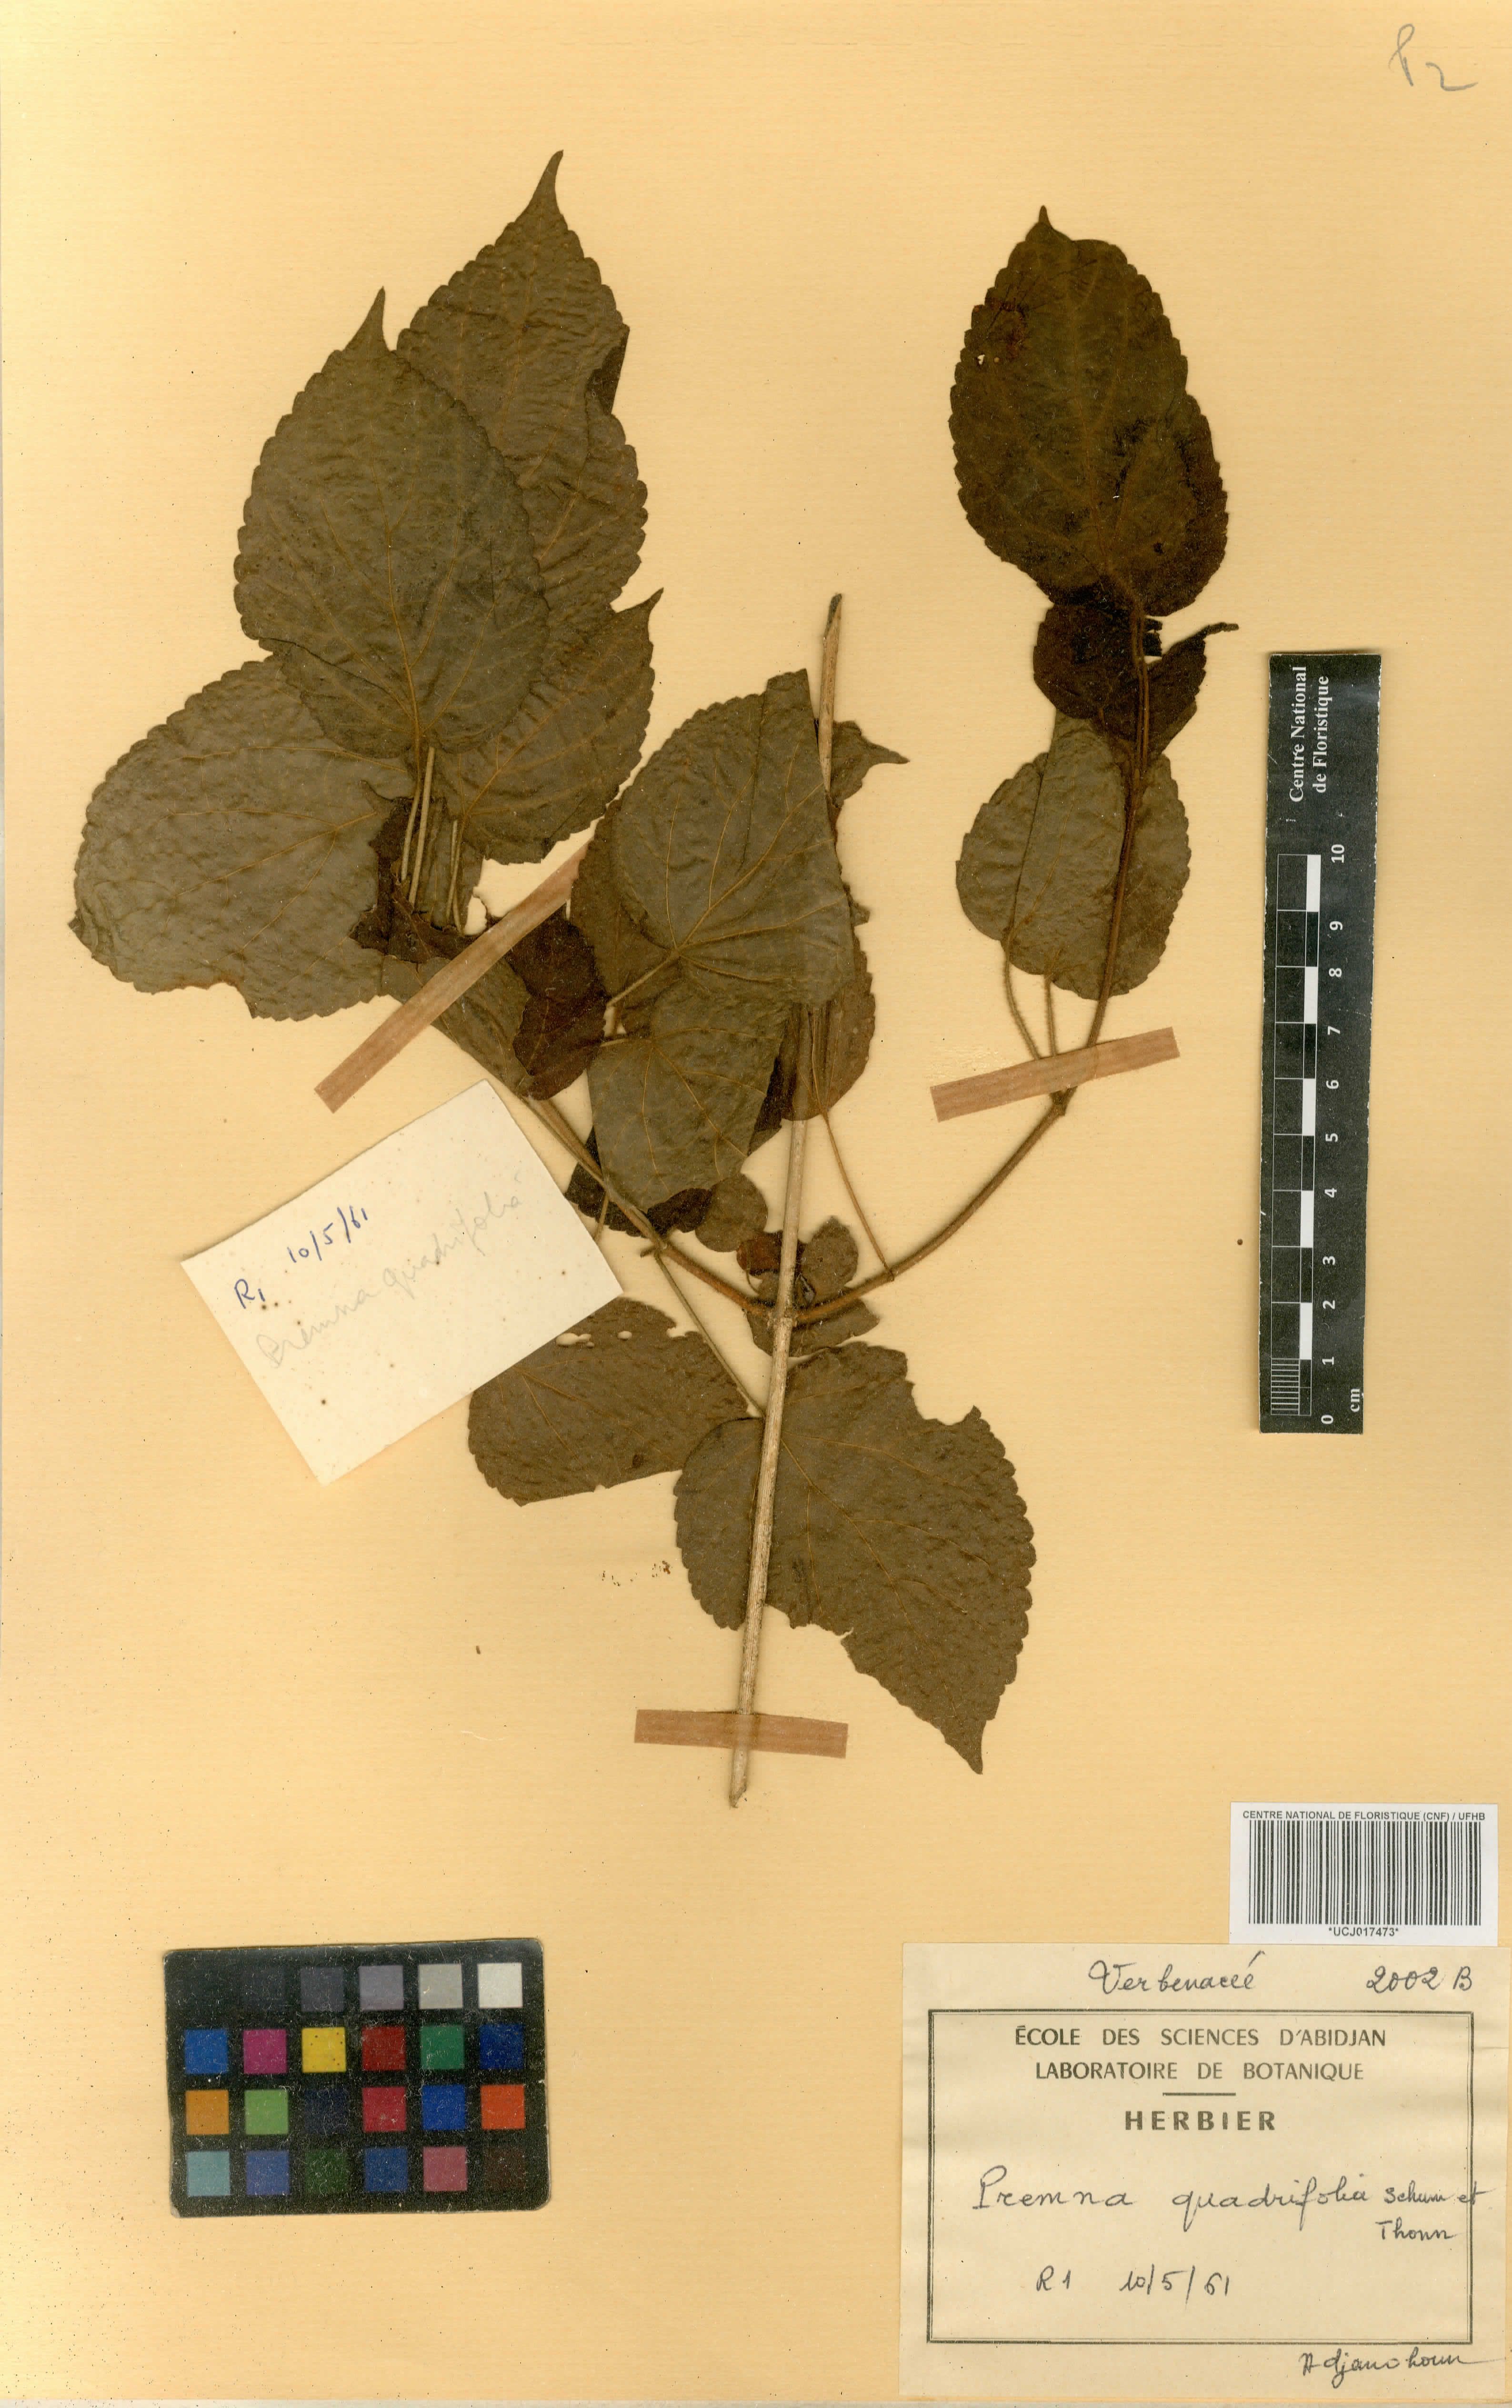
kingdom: Plantae
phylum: Tracheophyta
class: Magnoliopsida
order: Lamiales
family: Lamiaceae
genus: Premna
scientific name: Premna quadrifolia
